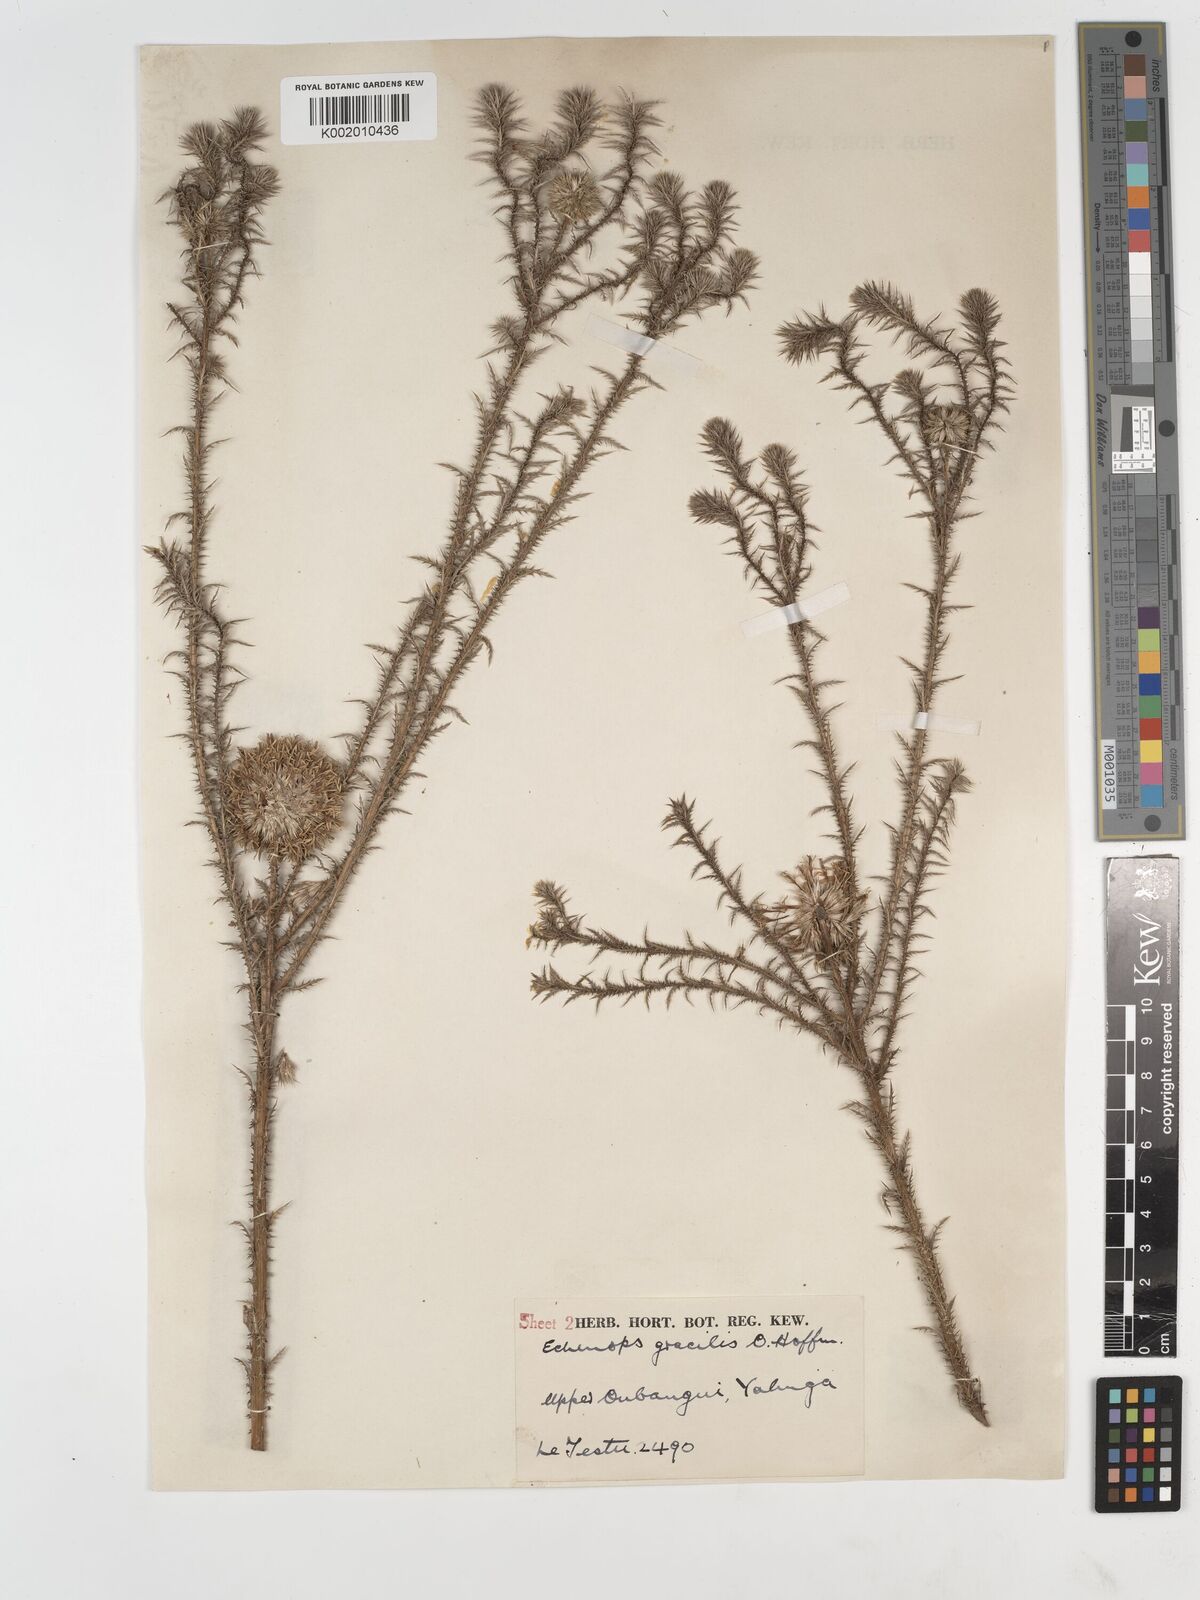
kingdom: Plantae
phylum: Tracheophyta
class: Magnoliopsida
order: Asterales
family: Asteraceae
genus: Echinops
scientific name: Echinops gracilis
